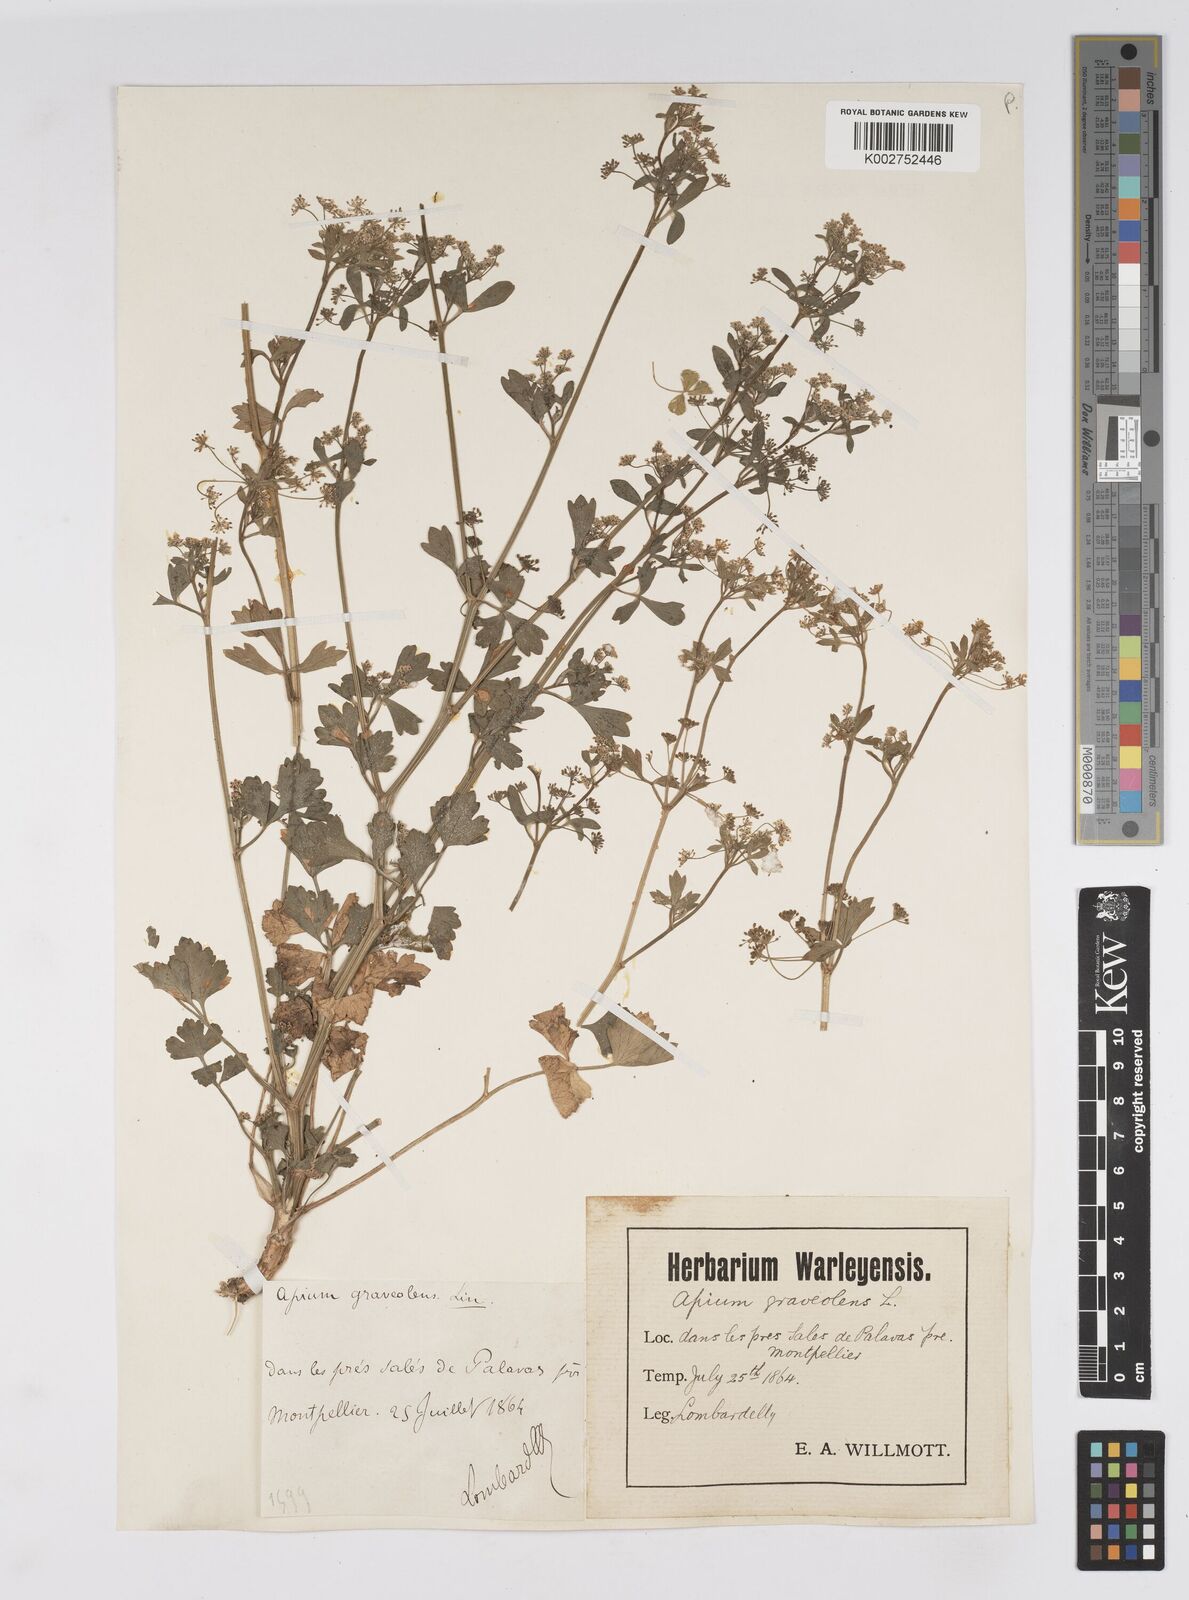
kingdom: Plantae
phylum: Tracheophyta
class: Magnoliopsida
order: Apiales
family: Apiaceae
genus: Apium
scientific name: Apium graveolens
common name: Wild celery
